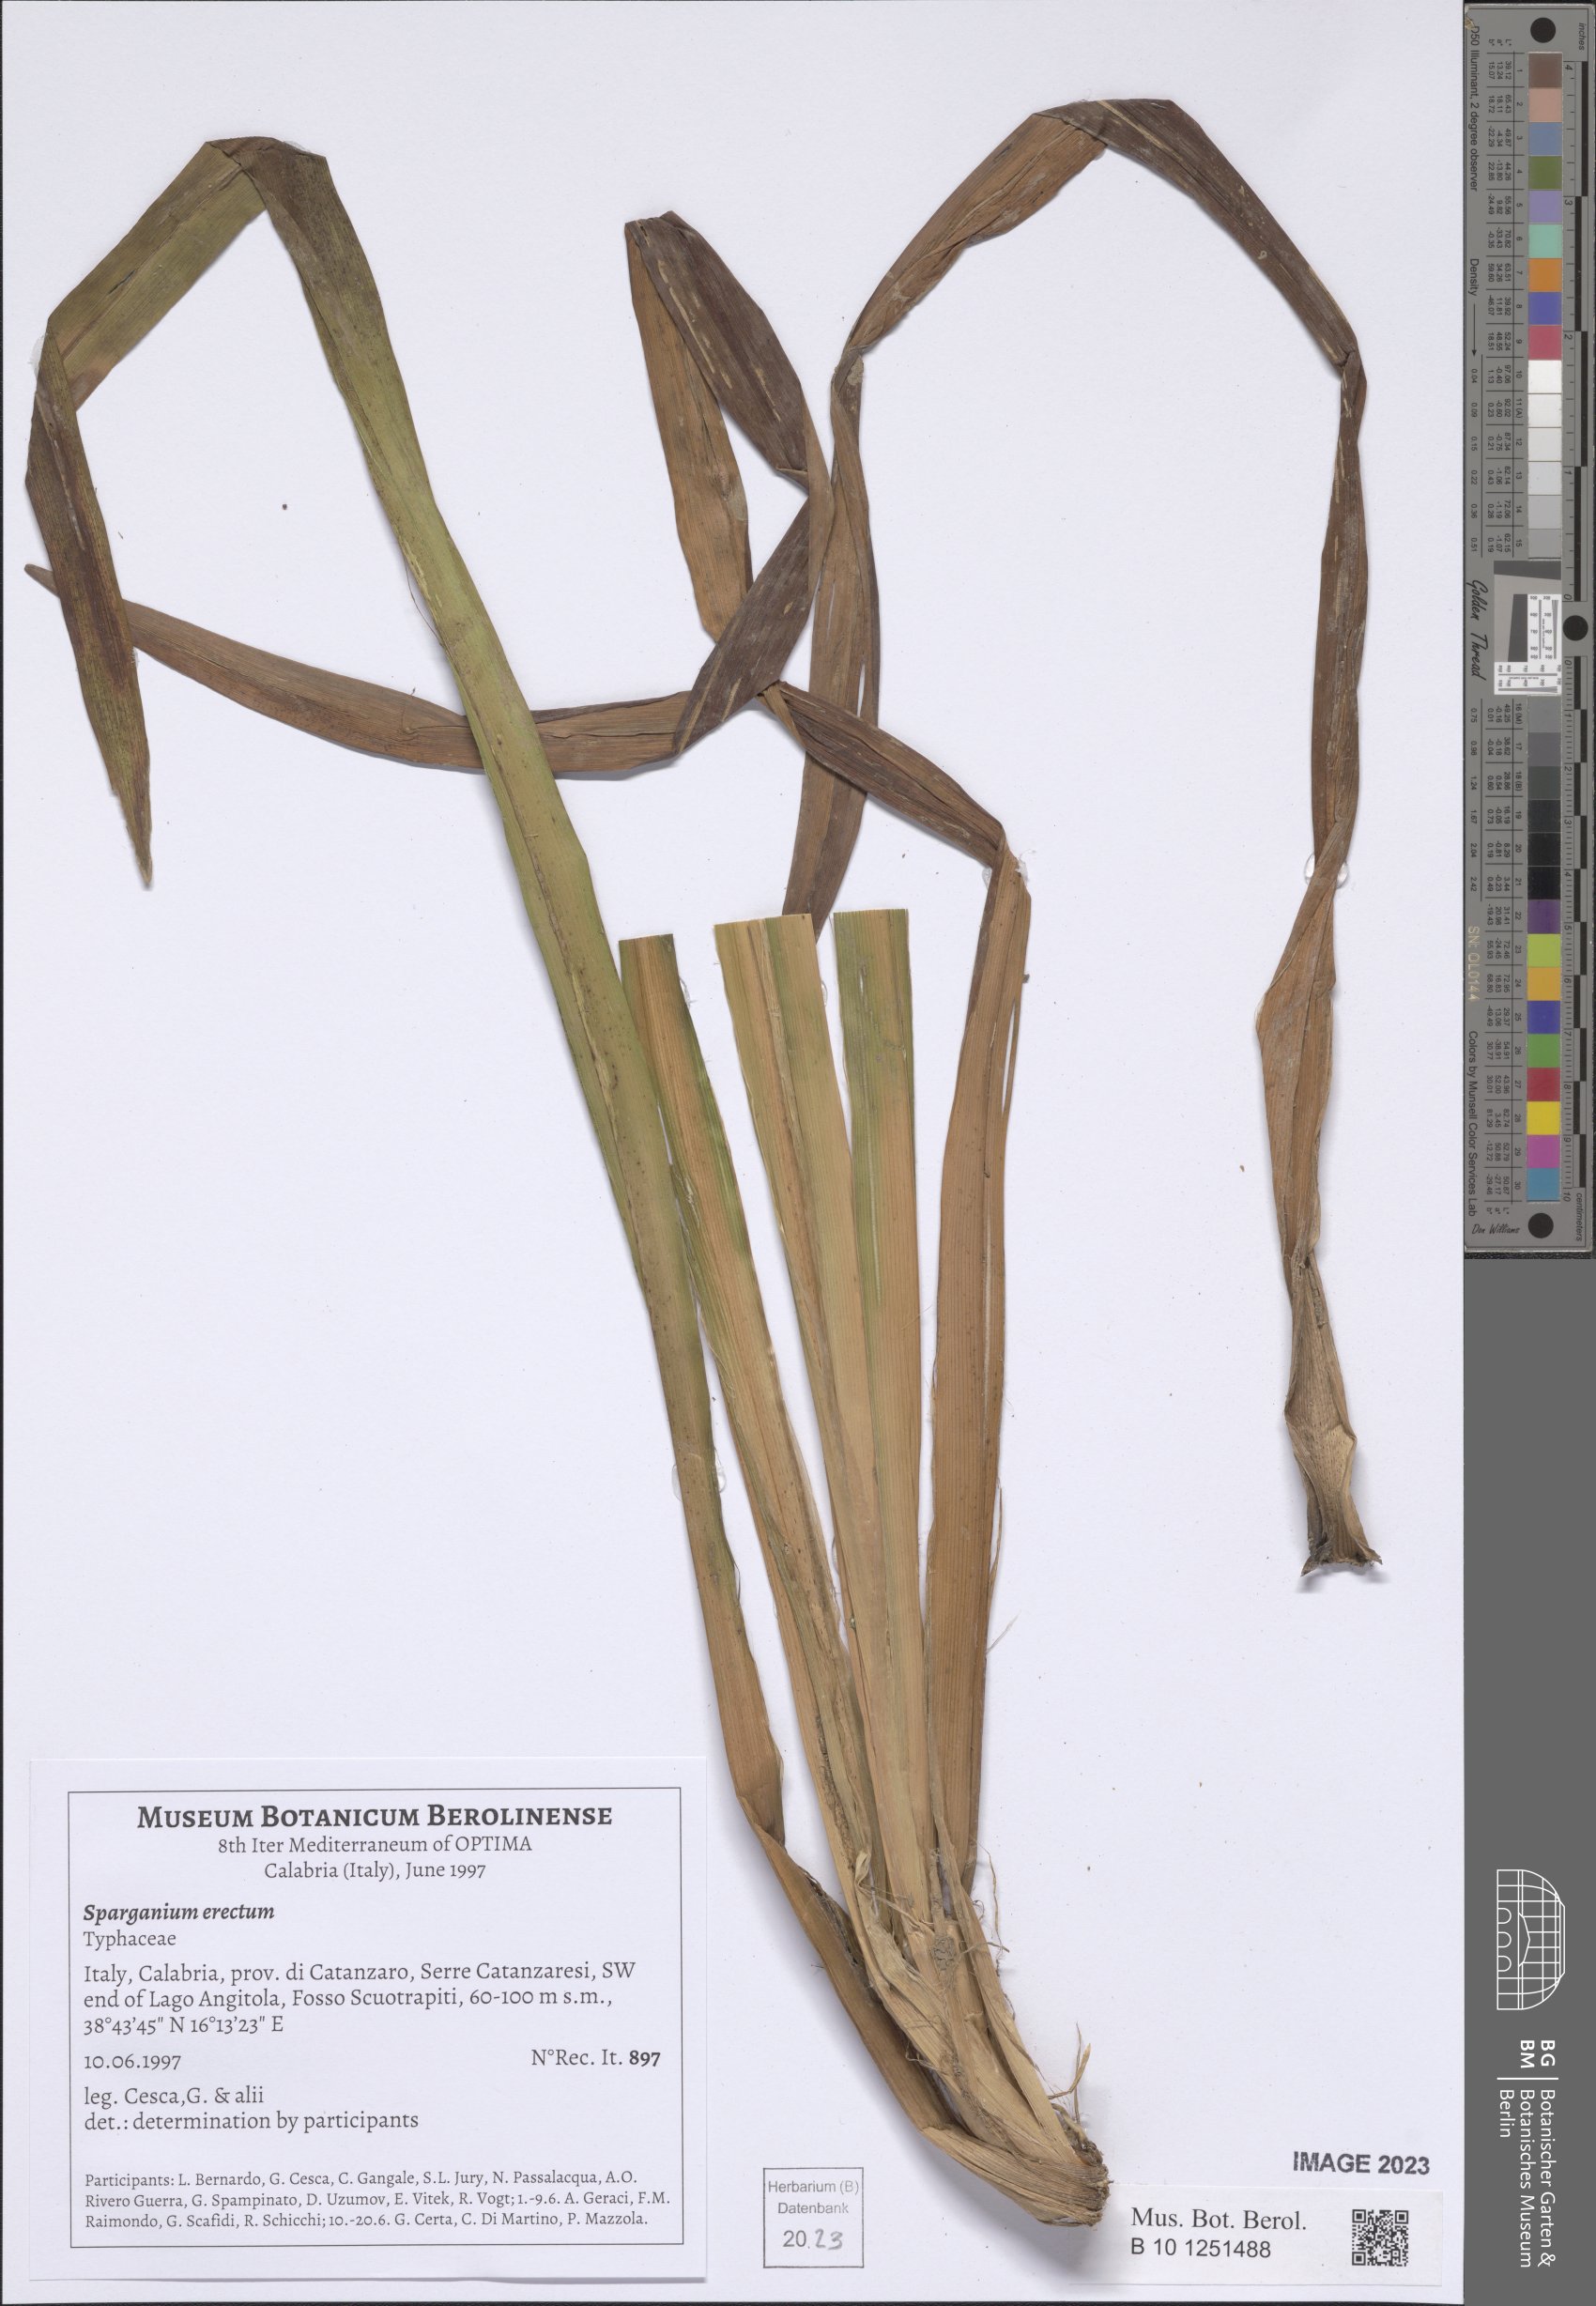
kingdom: Plantae
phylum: Tracheophyta
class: Liliopsida
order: Poales
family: Typhaceae
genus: Sparganium
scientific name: Sparganium erectum
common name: Branched bur-reed
